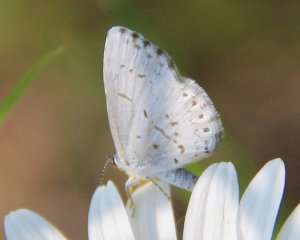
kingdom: Animalia
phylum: Arthropoda
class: Insecta
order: Lepidoptera
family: Lycaenidae
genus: Celastrina
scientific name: Celastrina
